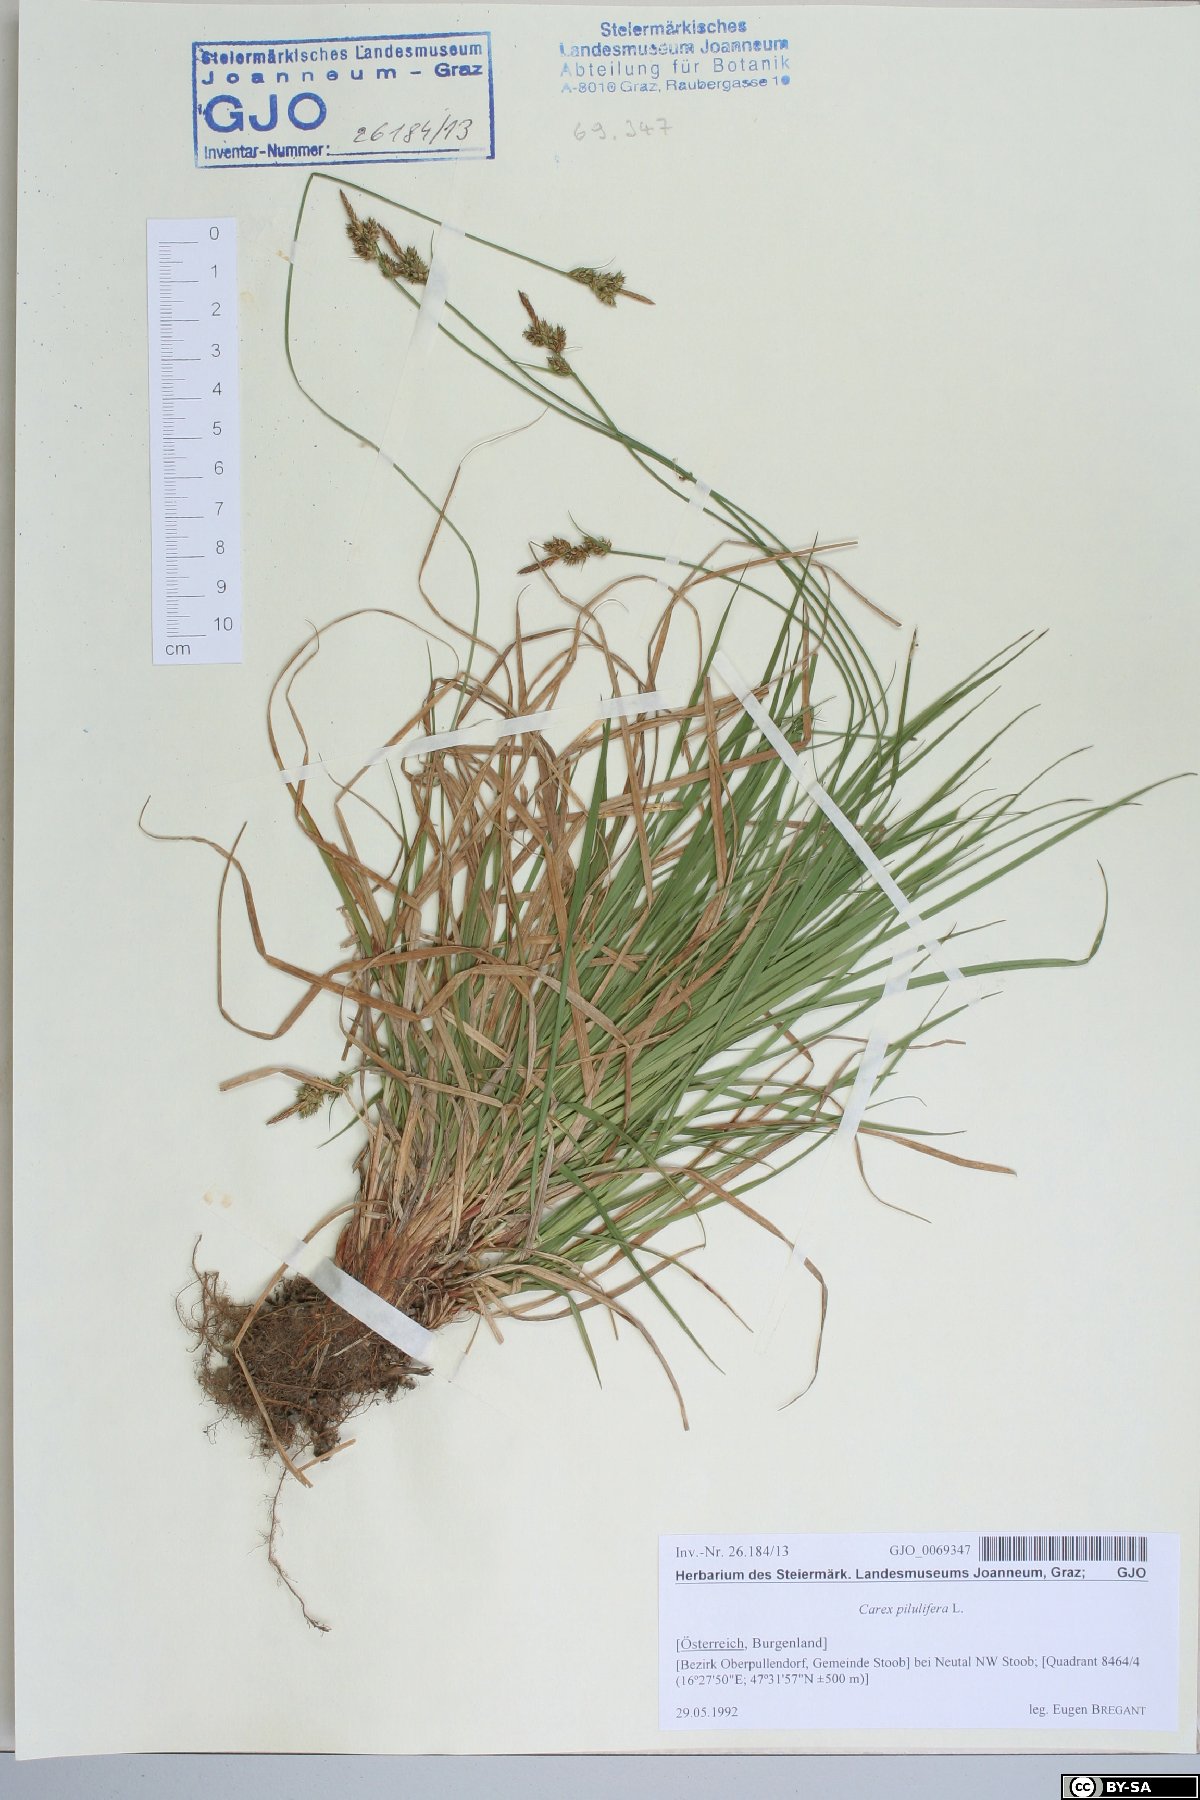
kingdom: Plantae
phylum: Tracheophyta
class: Liliopsida
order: Poales
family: Cyperaceae
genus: Carex
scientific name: Carex pilulifera
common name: Pill sedge
